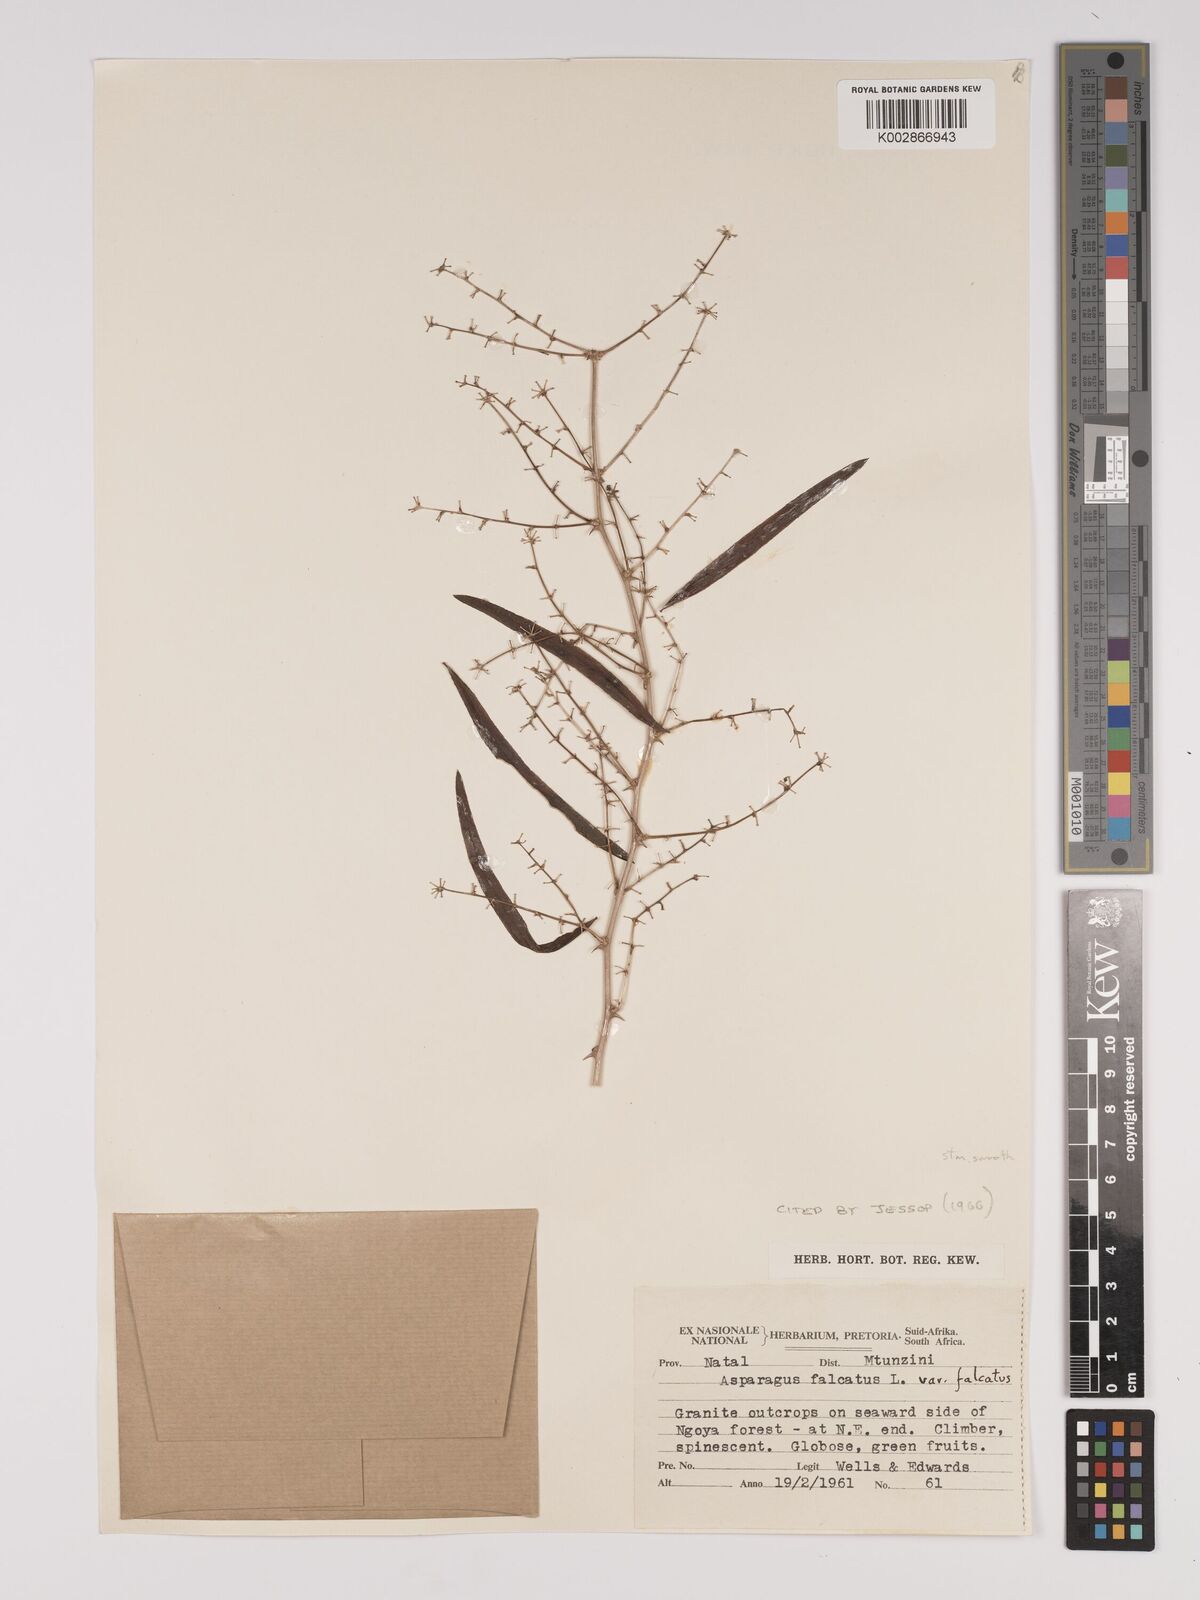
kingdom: Plantae
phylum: Tracheophyta
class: Liliopsida
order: Asparagales
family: Asparagaceae
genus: Asparagus
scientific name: Asparagus falcatus
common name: Asparagus
